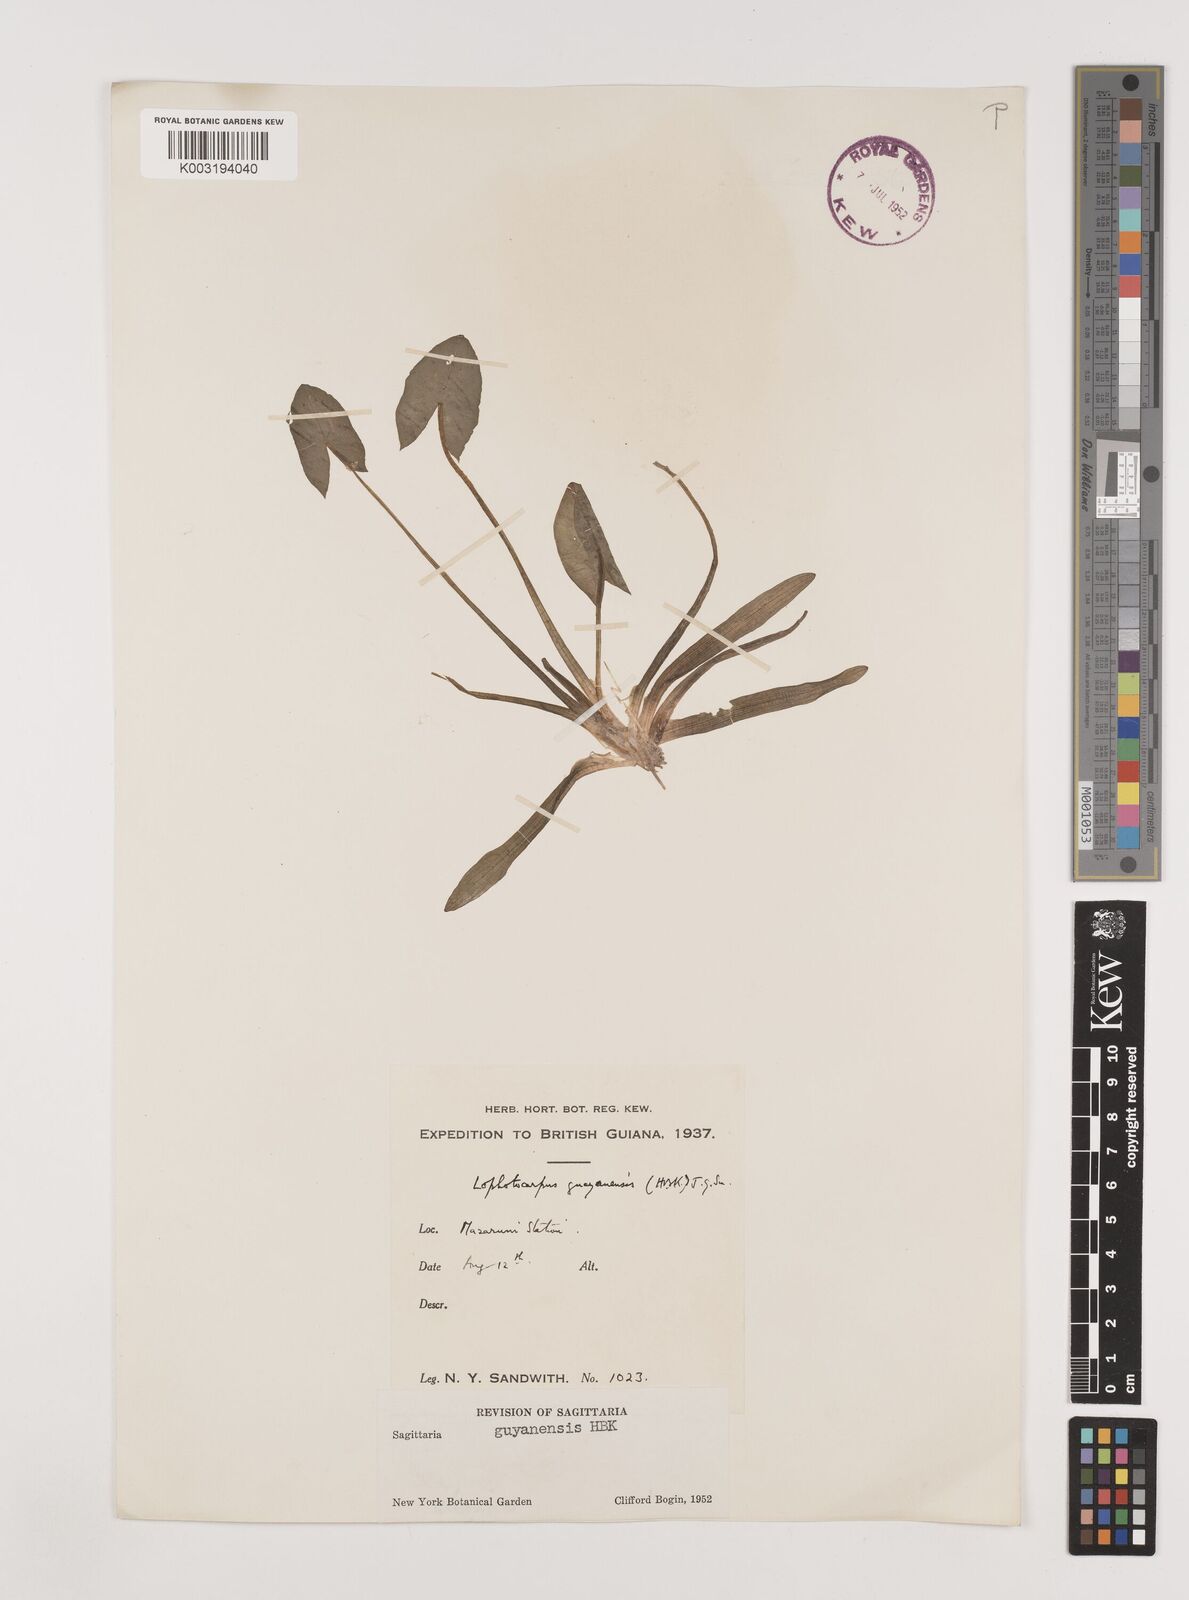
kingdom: Plantae
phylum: Tracheophyta
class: Liliopsida
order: Alismatales
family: Alismataceae
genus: Sagittaria
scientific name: Sagittaria guayanensis
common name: Guyanese arrowhead
